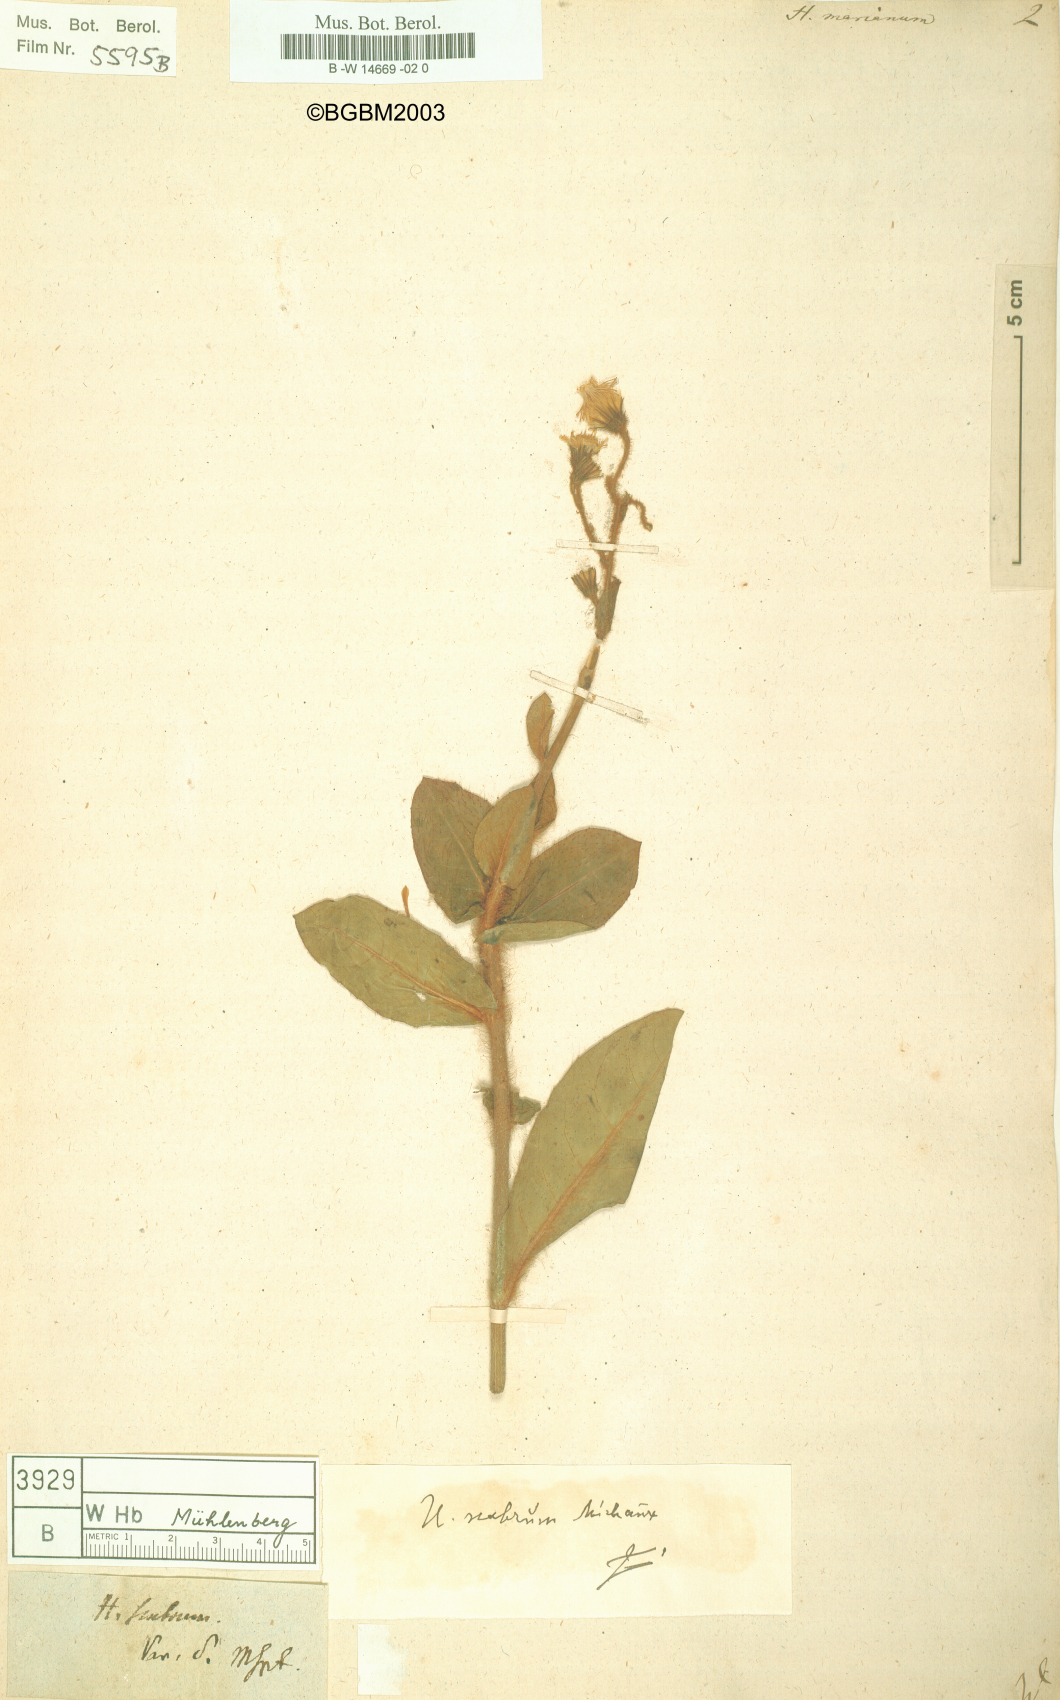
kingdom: Plantae
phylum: Tracheophyta
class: Magnoliopsida
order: Asterales
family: Asteraceae
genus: Hieracium
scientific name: Hieracium marianum
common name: Maryland hawkweed
